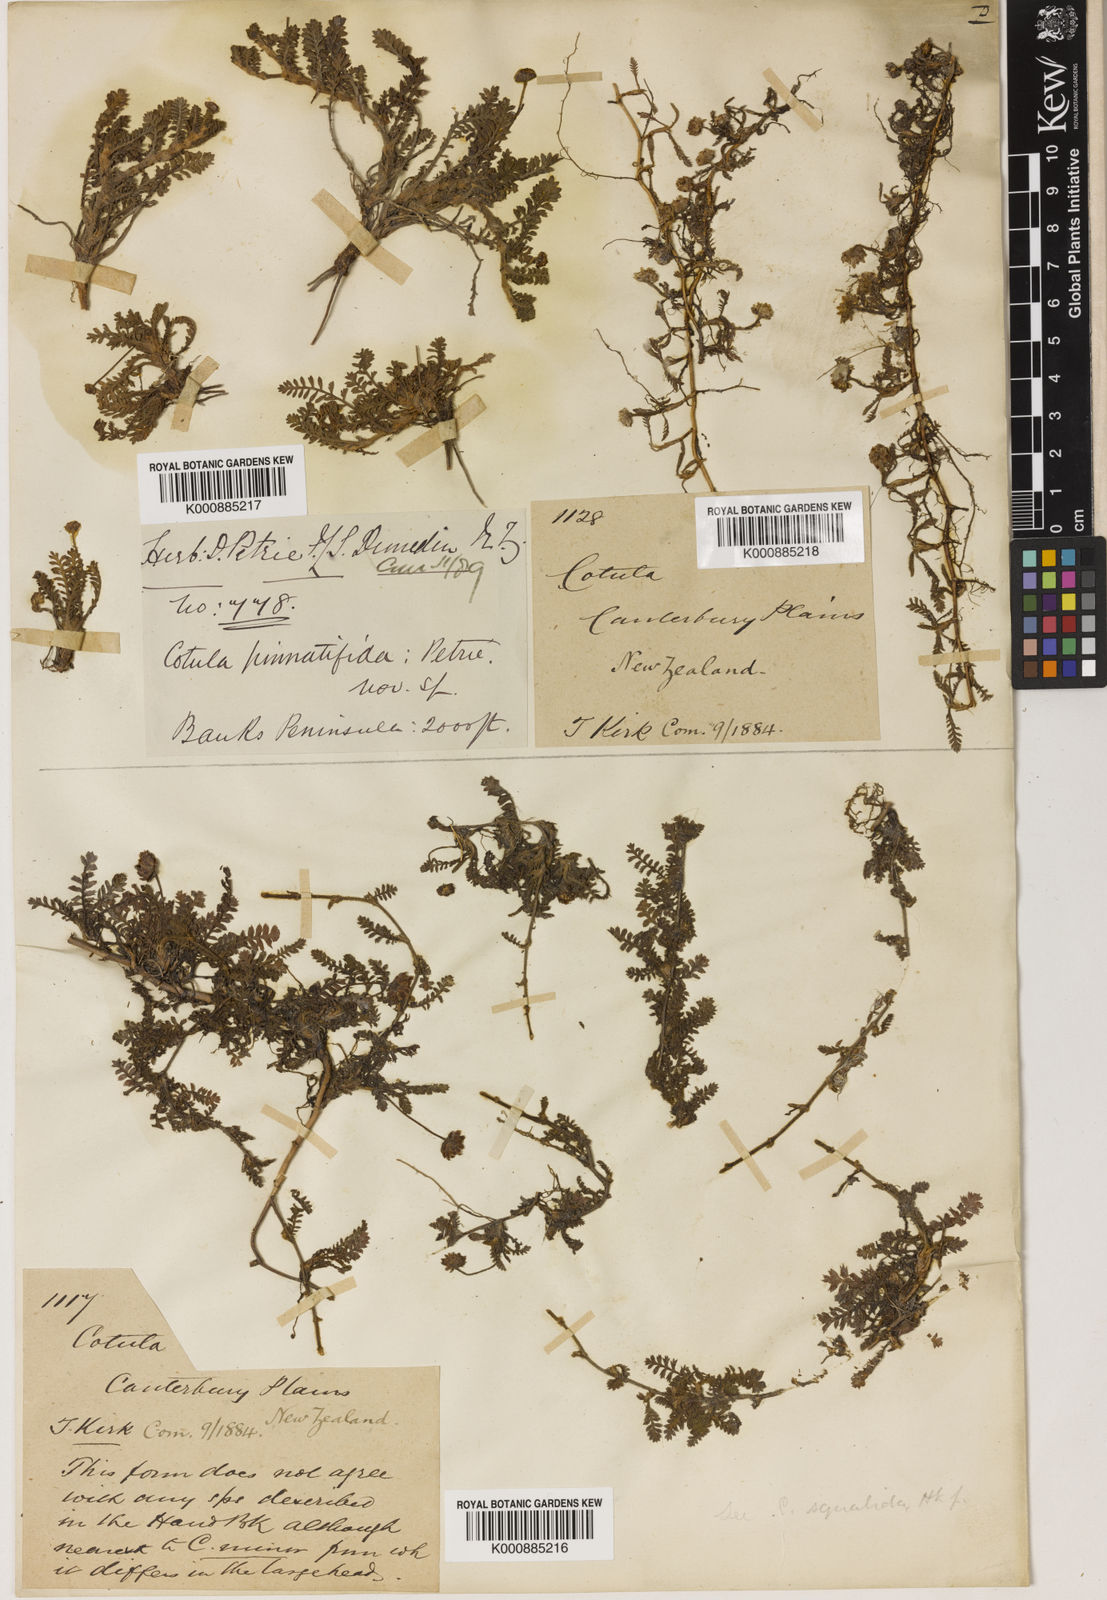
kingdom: Plantae
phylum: Tracheophyta
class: Magnoliopsida
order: Asterales
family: Asteraceae
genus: Leptinella
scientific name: Leptinella
